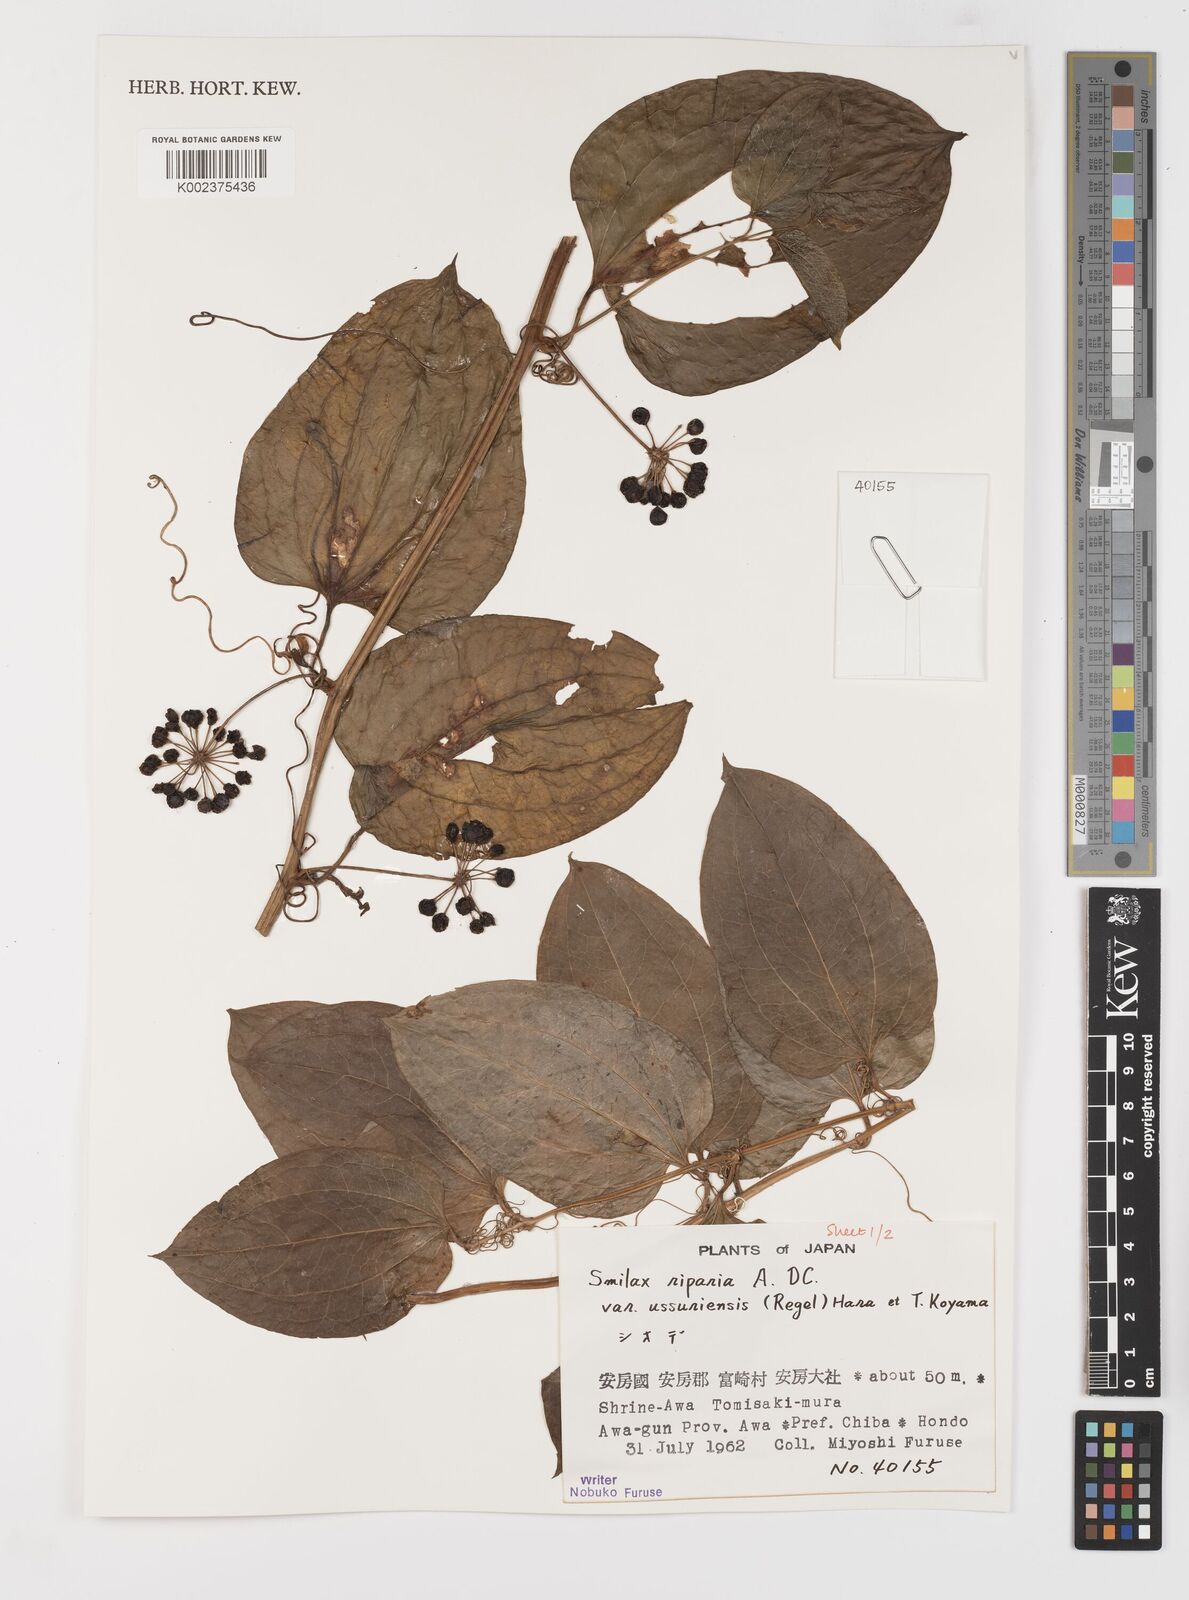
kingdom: Plantae
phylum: Tracheophyta
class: Liliopsida
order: Liliales
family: Smilacaceae
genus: Smilax
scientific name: Smilax riparia
